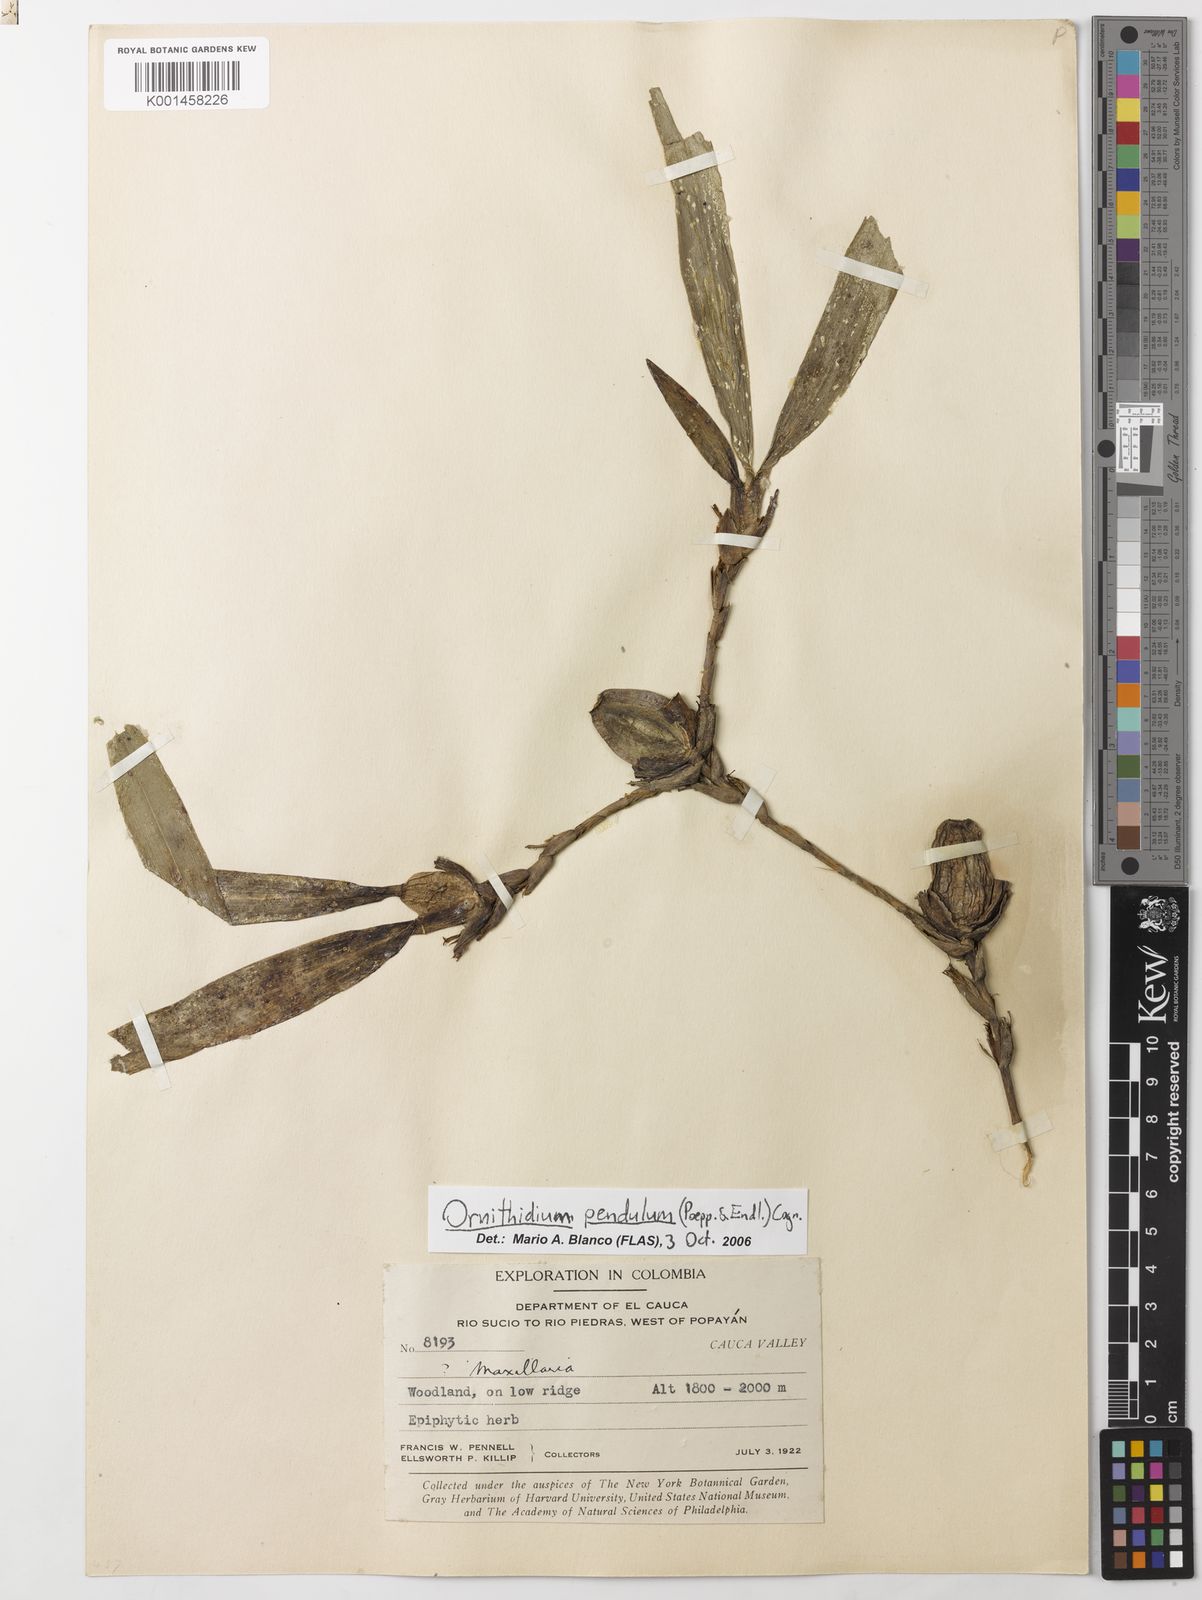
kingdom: Plantae
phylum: Tracheophyta
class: Liliopsida
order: Asparagales
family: Orchidaceae
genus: Maxillaria
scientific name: Maxillaria pendula
